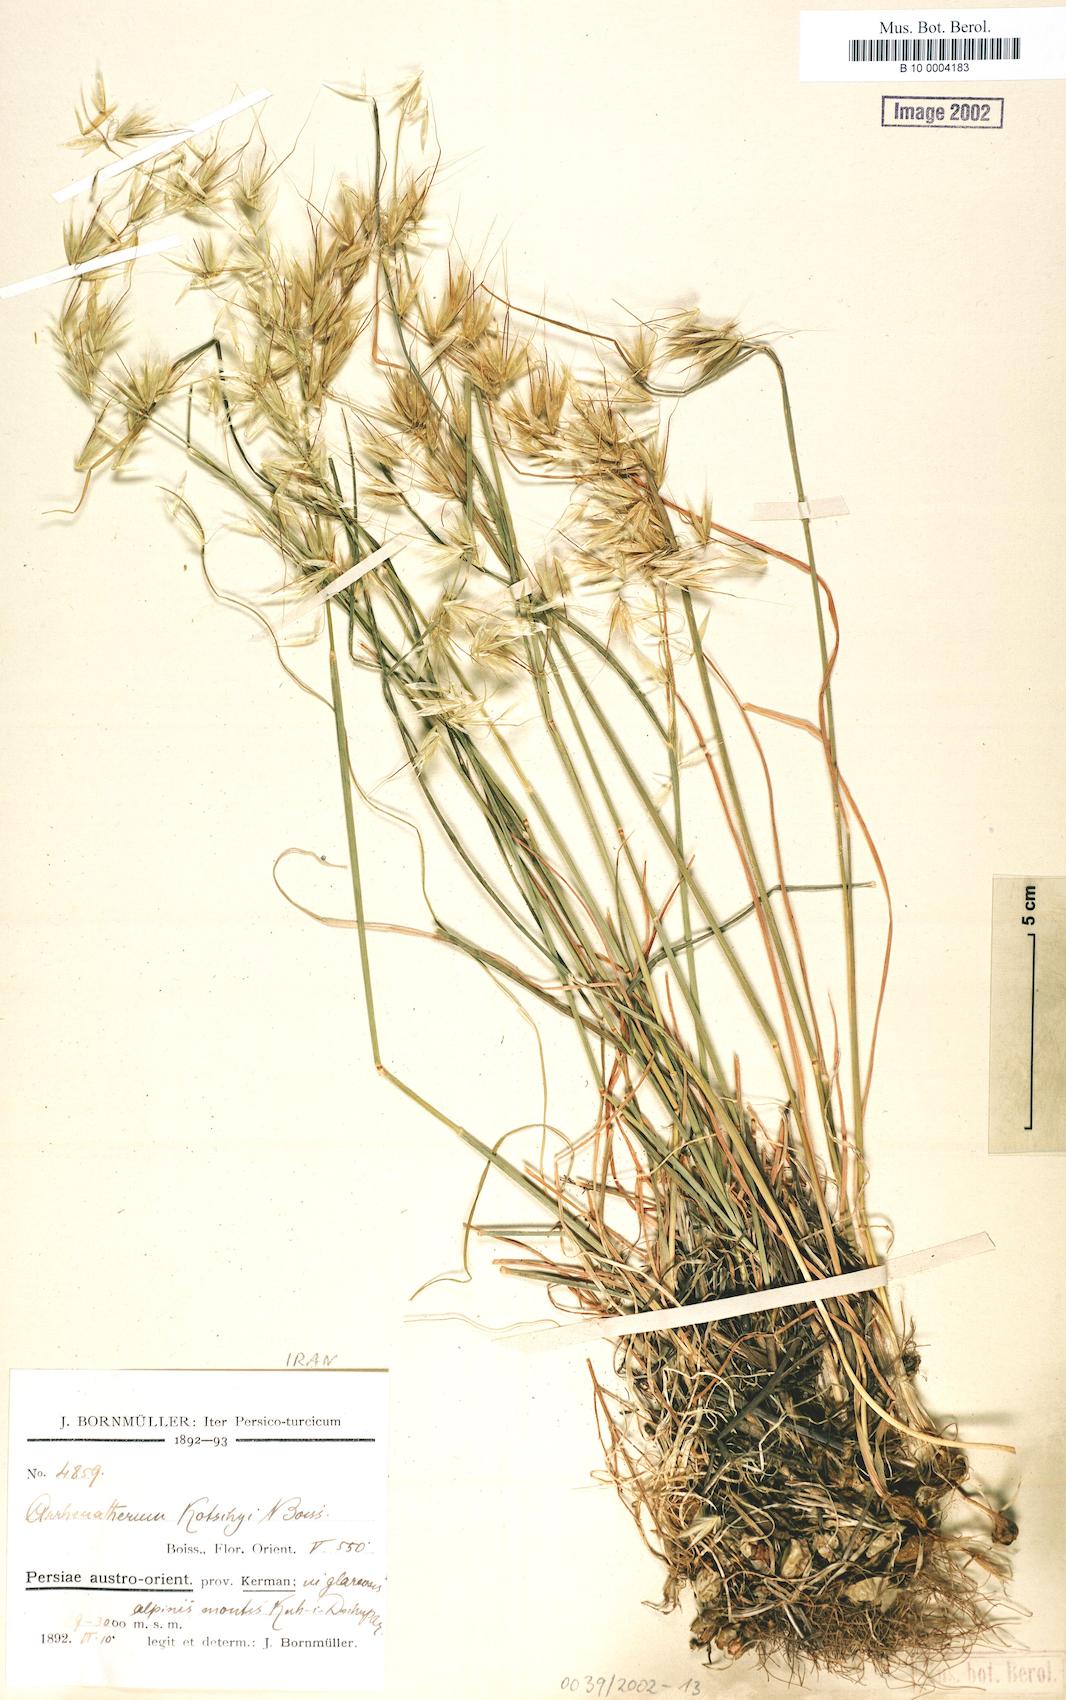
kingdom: Plantae
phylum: Tracheophyta
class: Liliopsida
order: Poales
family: Poaceae
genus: Arrhenatherum
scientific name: Arrhenatherum kotschyi
